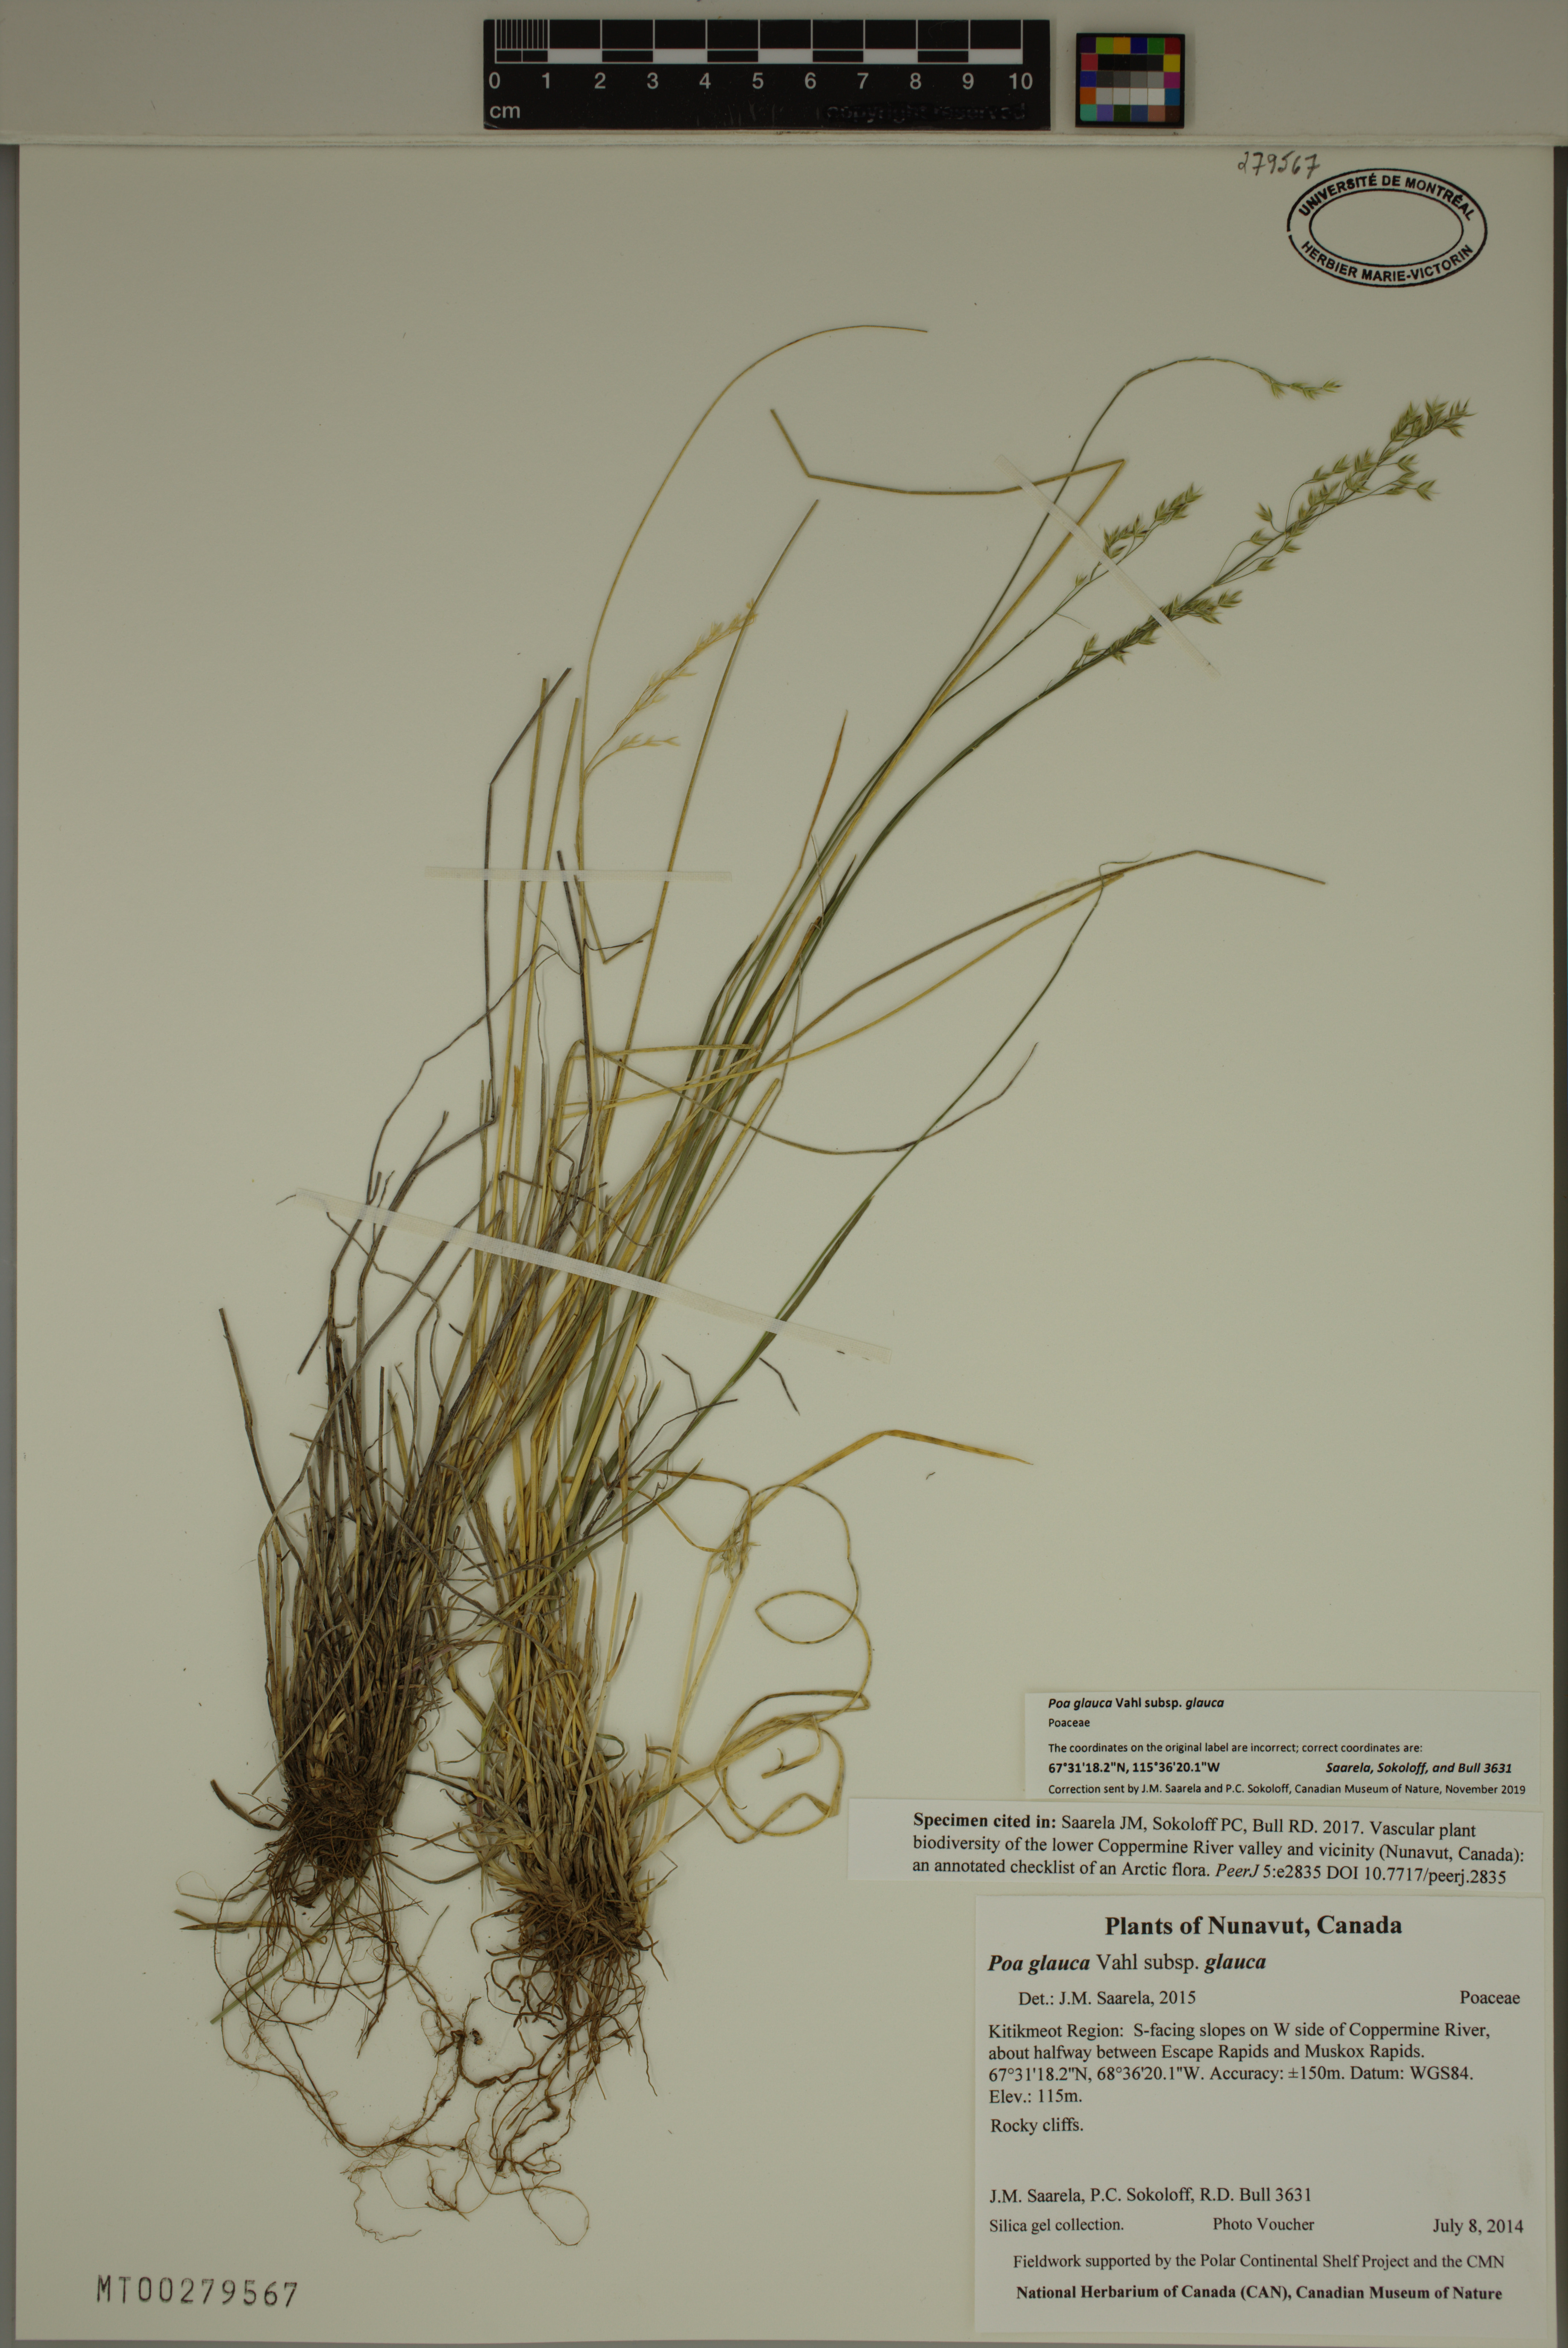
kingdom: Plantae
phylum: Tracheophyta
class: Liliopsida
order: Poales
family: Poaceae
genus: Poa
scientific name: Poa glauca
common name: Glaucous bluegrass
